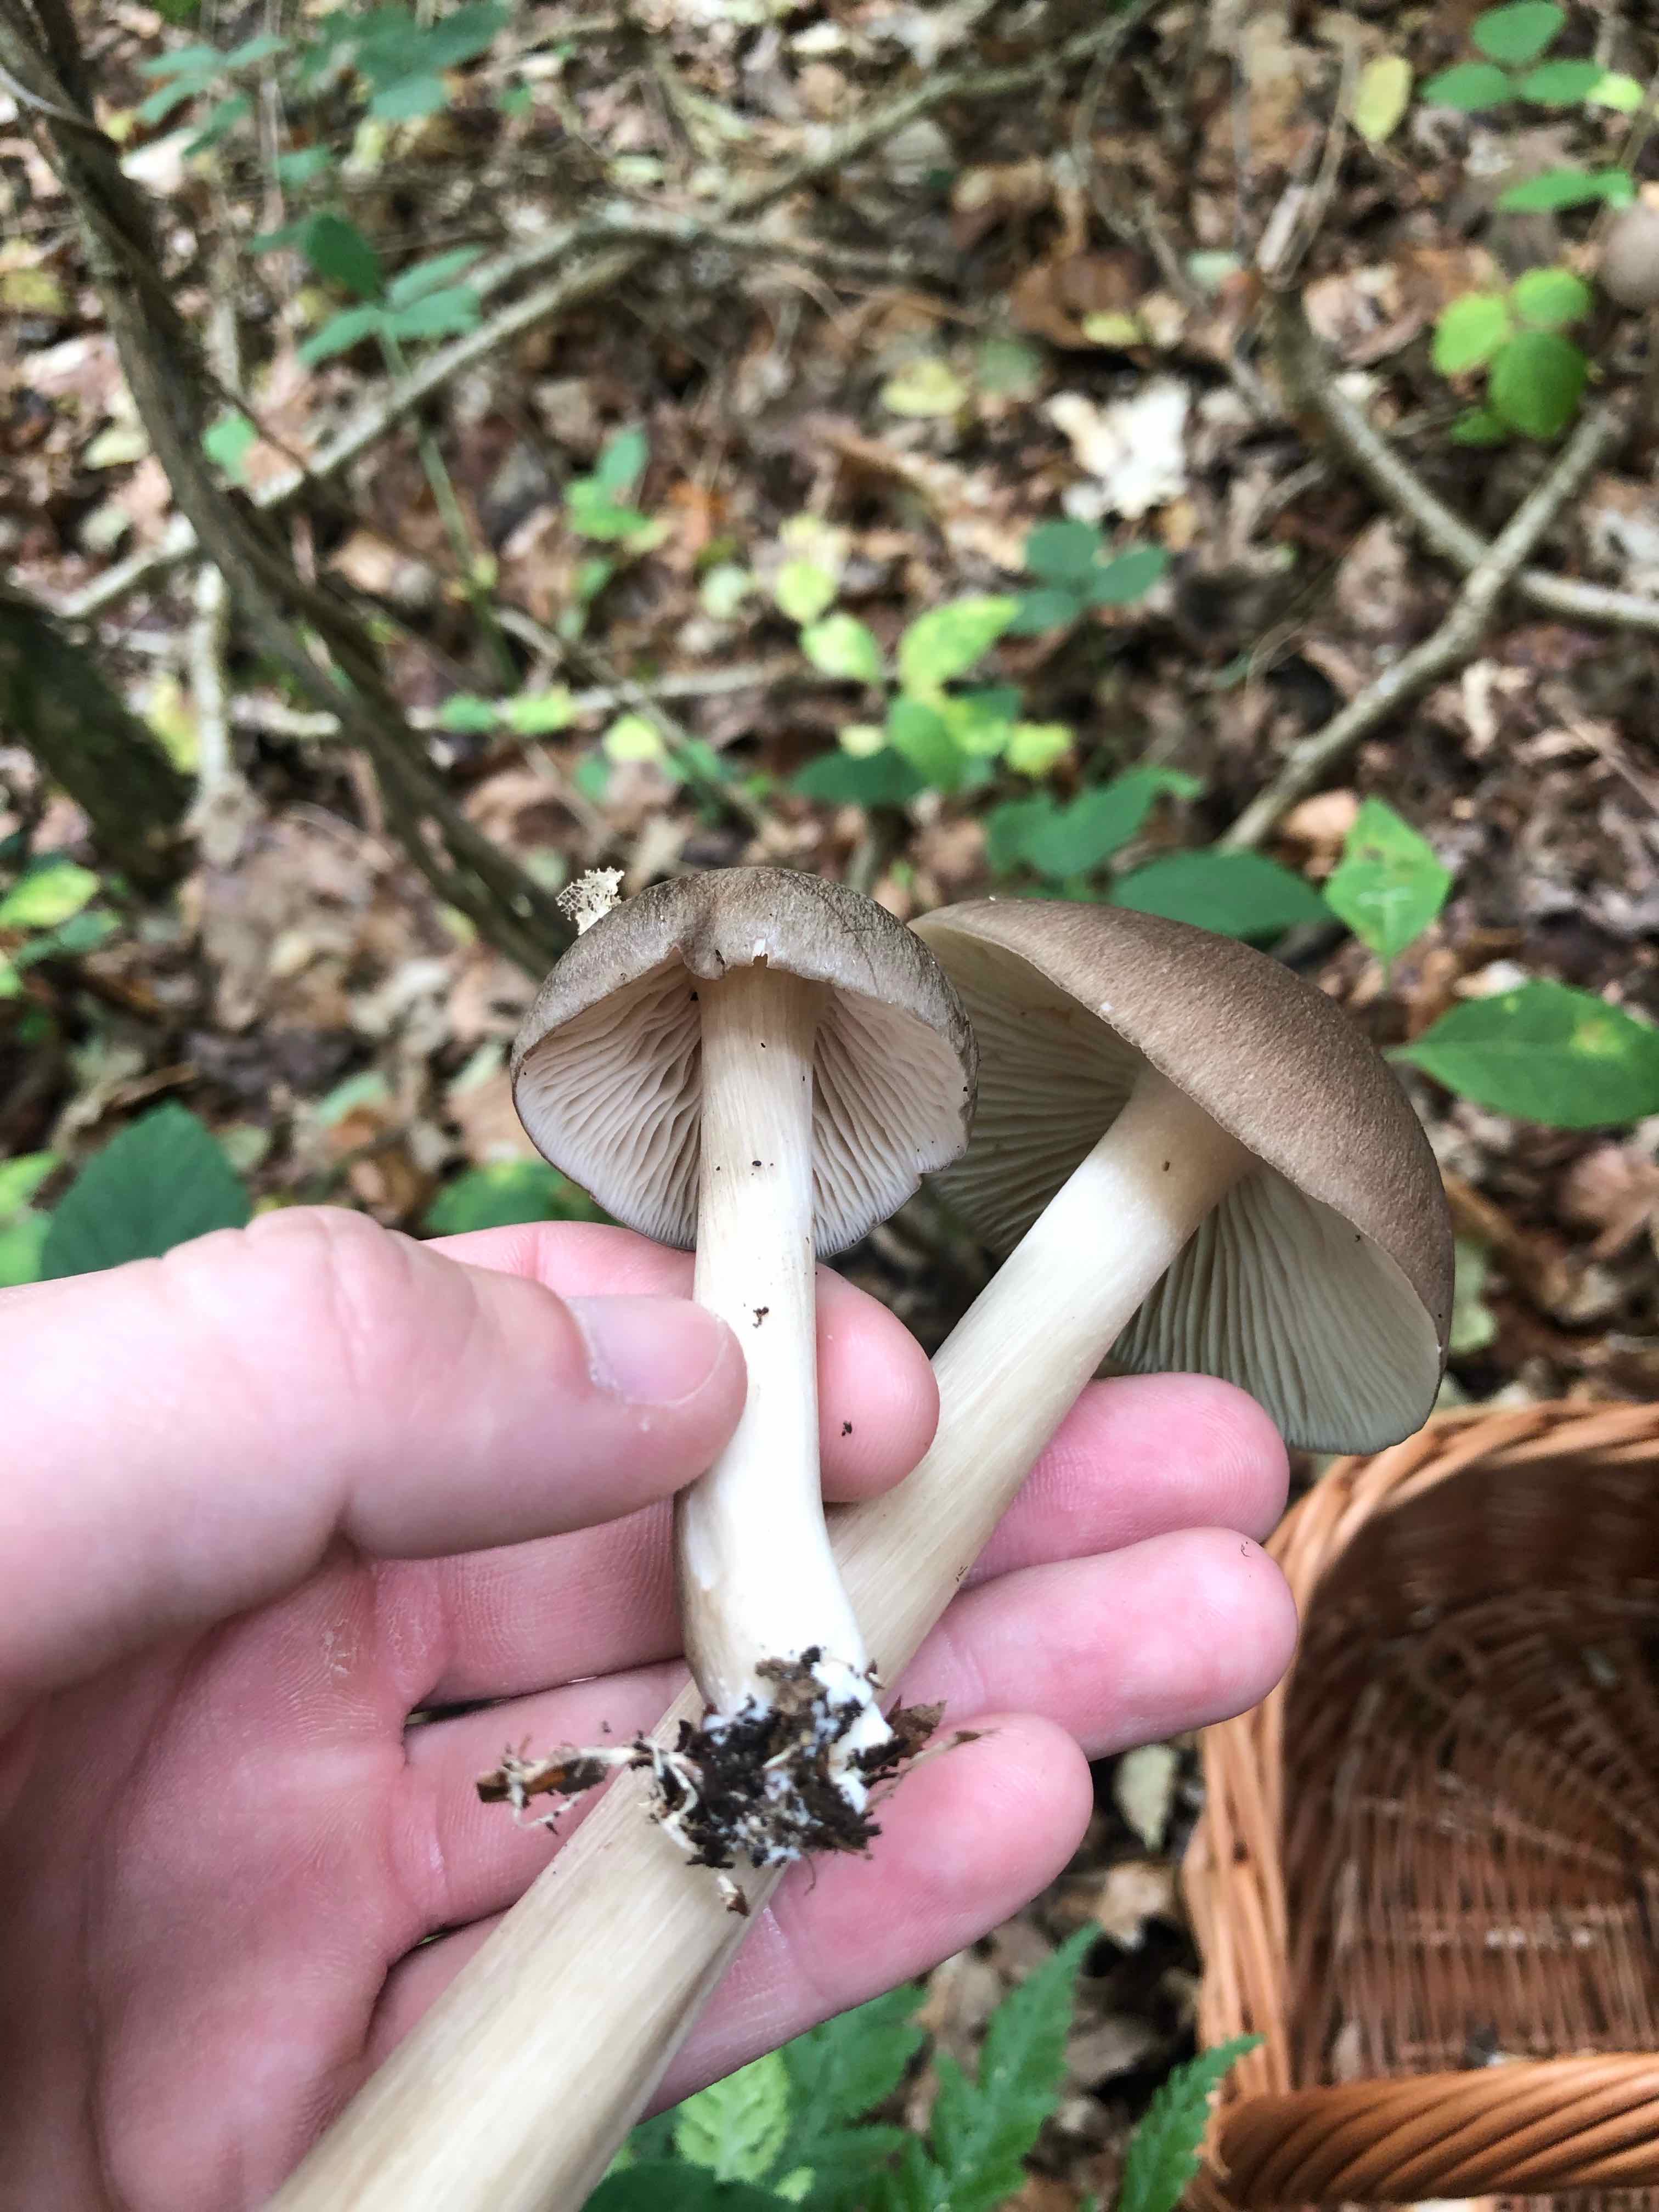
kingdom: Fungi
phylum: Basidiomycota
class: Agaricomycetes
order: Agaricales
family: Tricholomataceae
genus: Megacollybia
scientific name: Megacollybia platyphylla
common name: bredbladet væbnerhat
